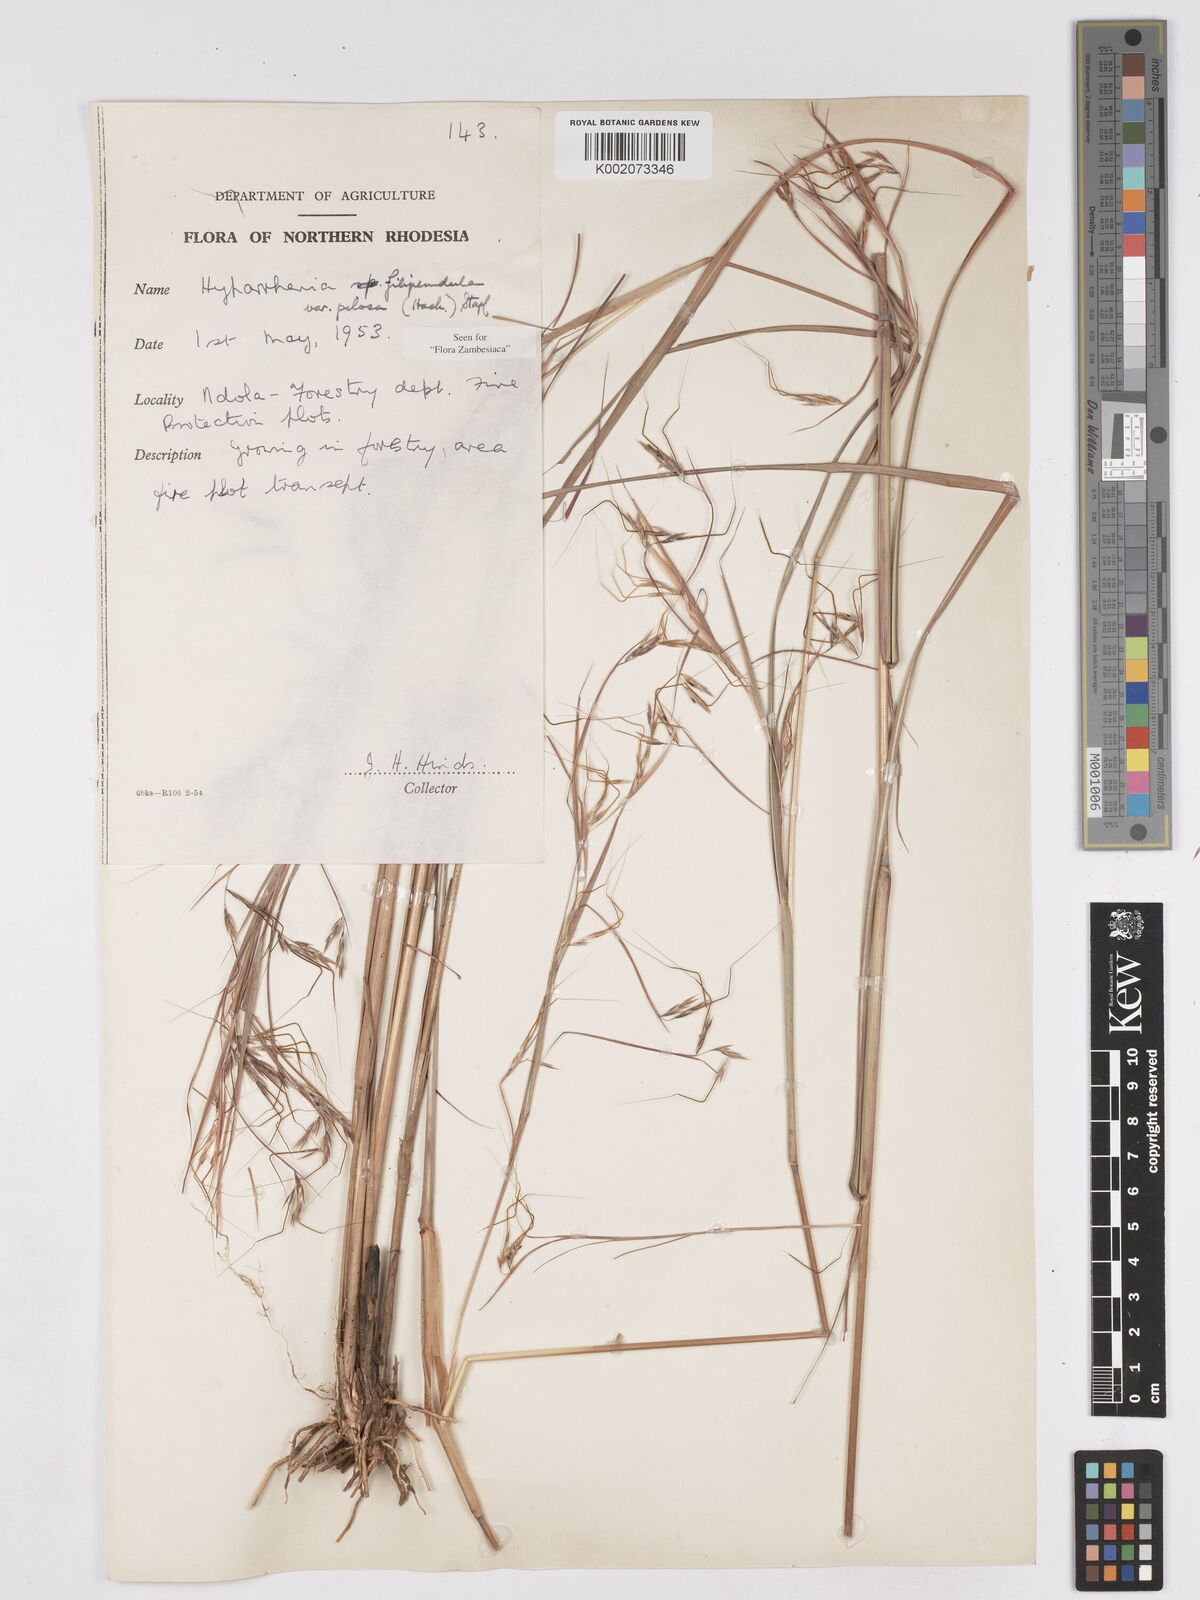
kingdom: Plantae
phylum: Tracheophyta
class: Liliopsida
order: Poales
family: Poaceae
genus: Hyparrhenia
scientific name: Hyparrhenia filipendula
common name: Tambookie grass
